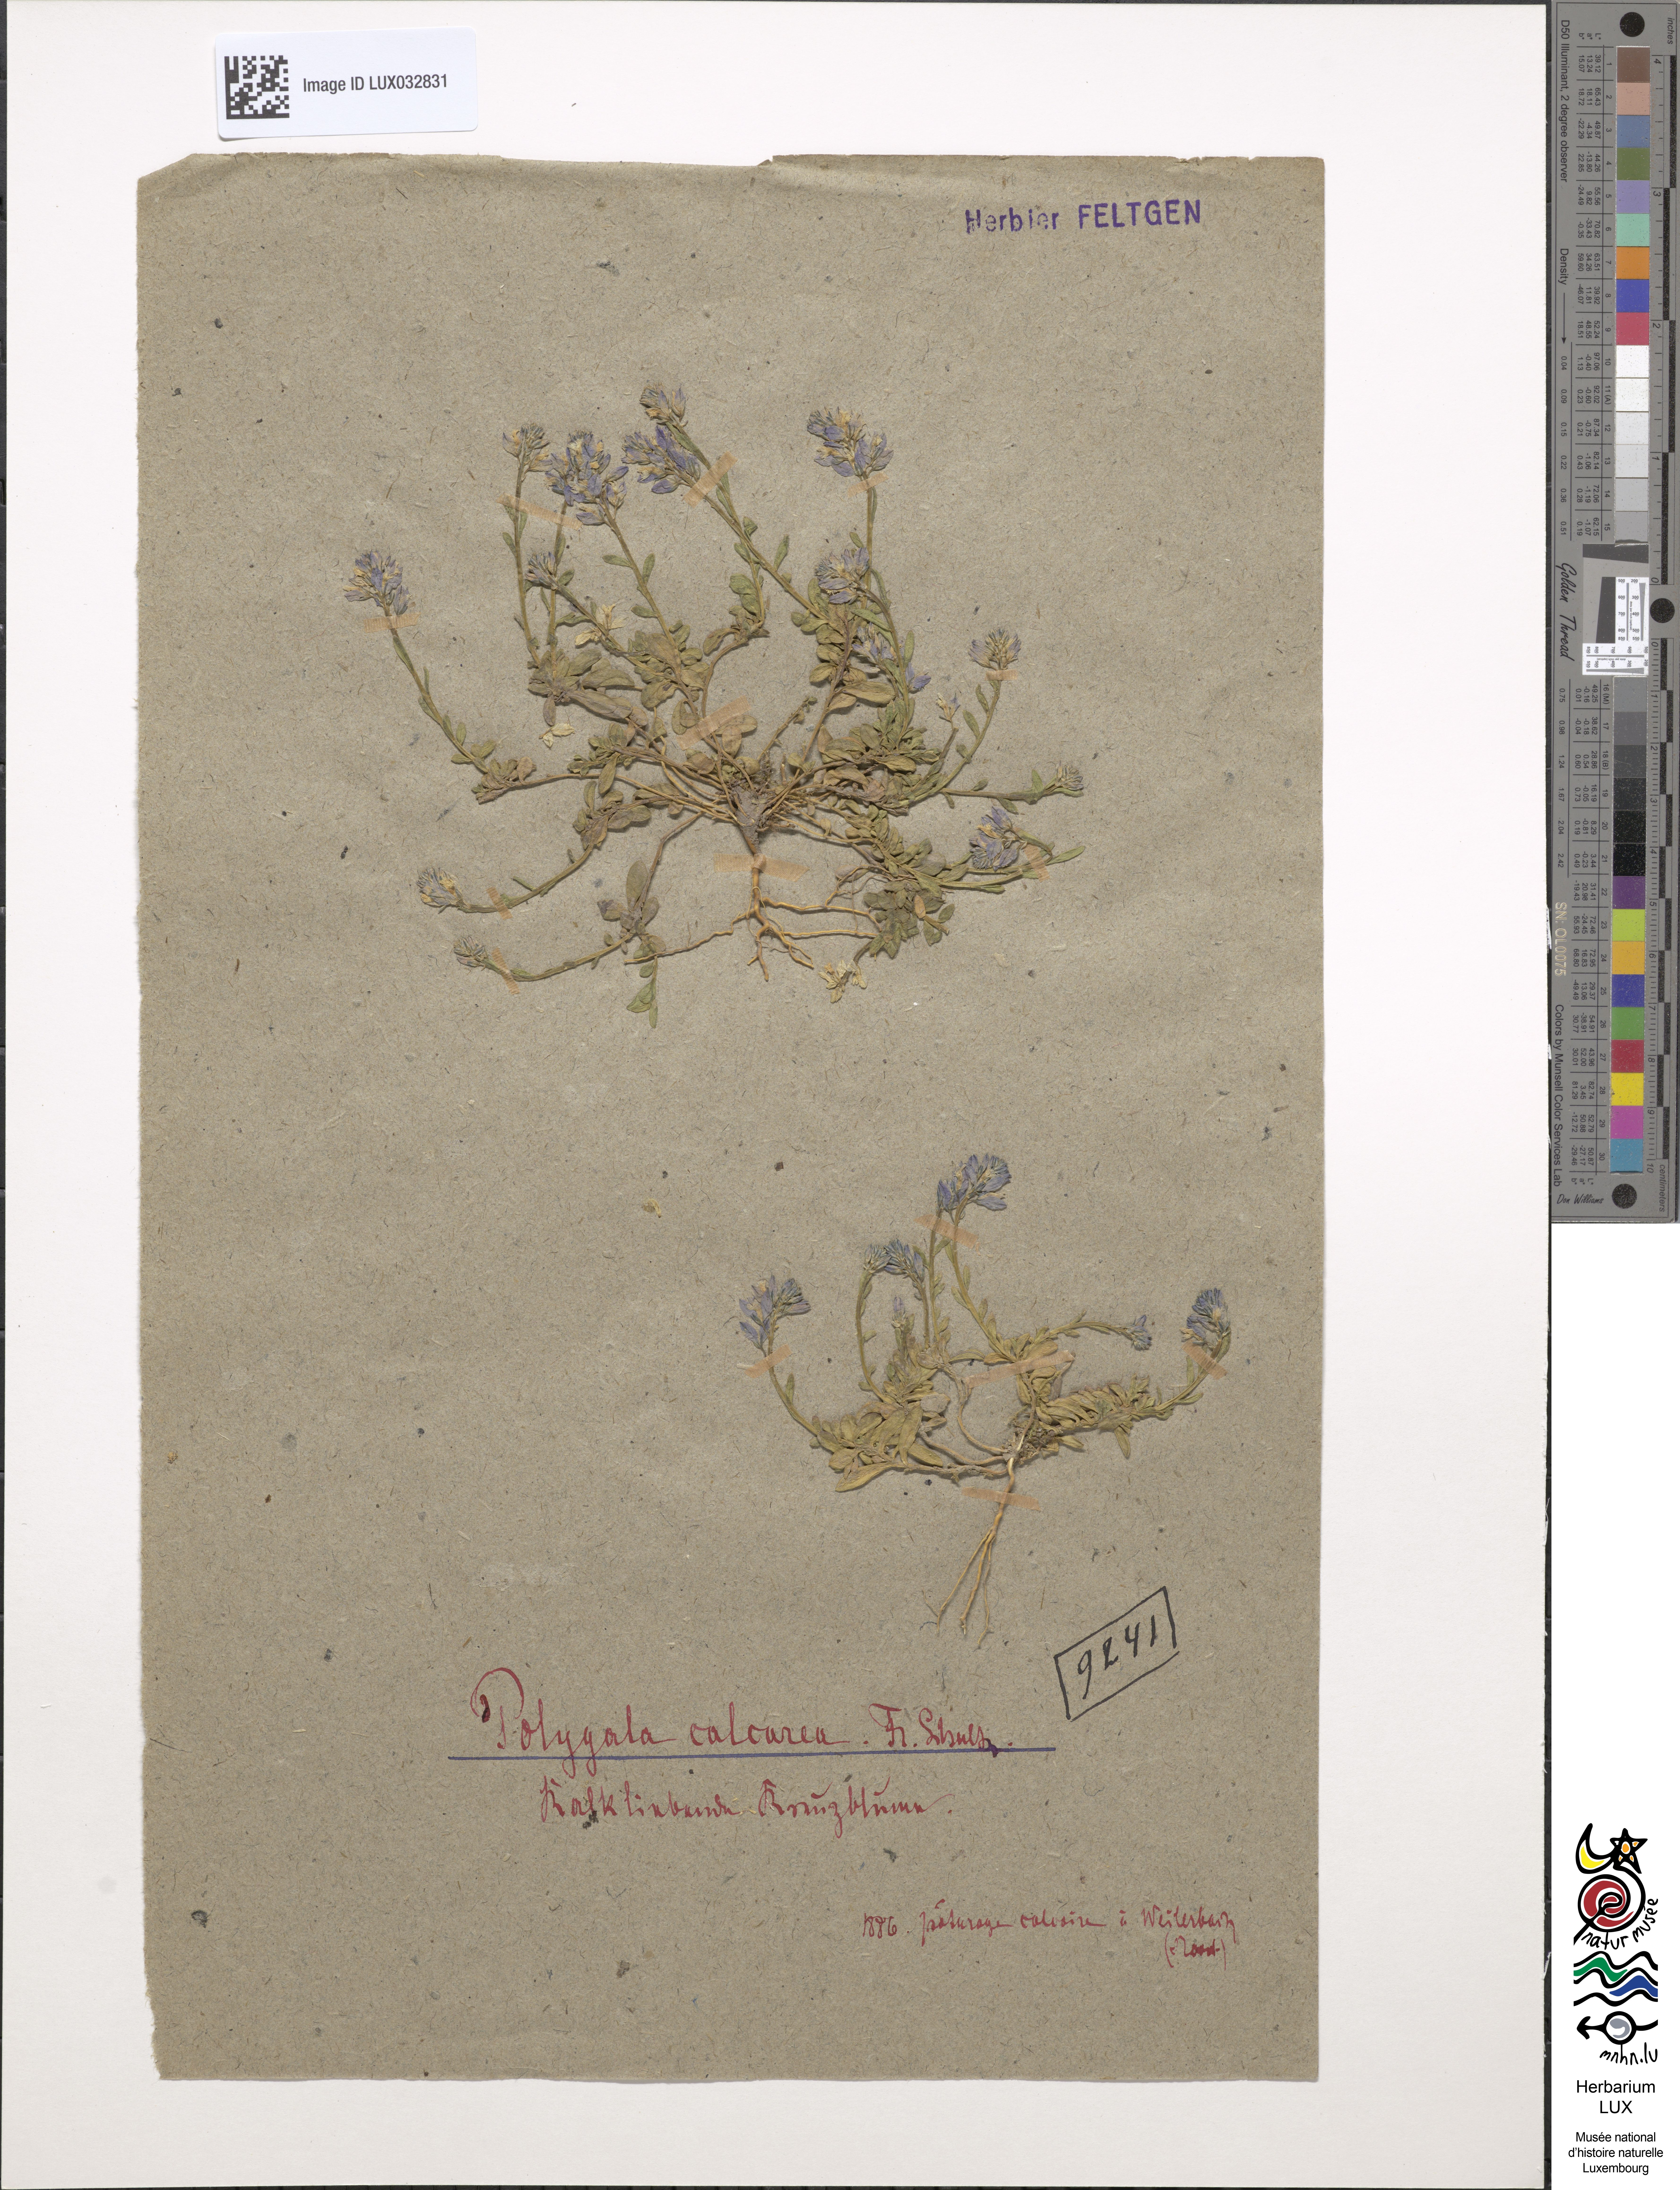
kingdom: Plantae
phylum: Tracheophyta
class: Magnoliopsida
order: Fabales
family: Polygalaceae
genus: Polygala
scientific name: Polygala calcarea
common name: Chalk milkwort
